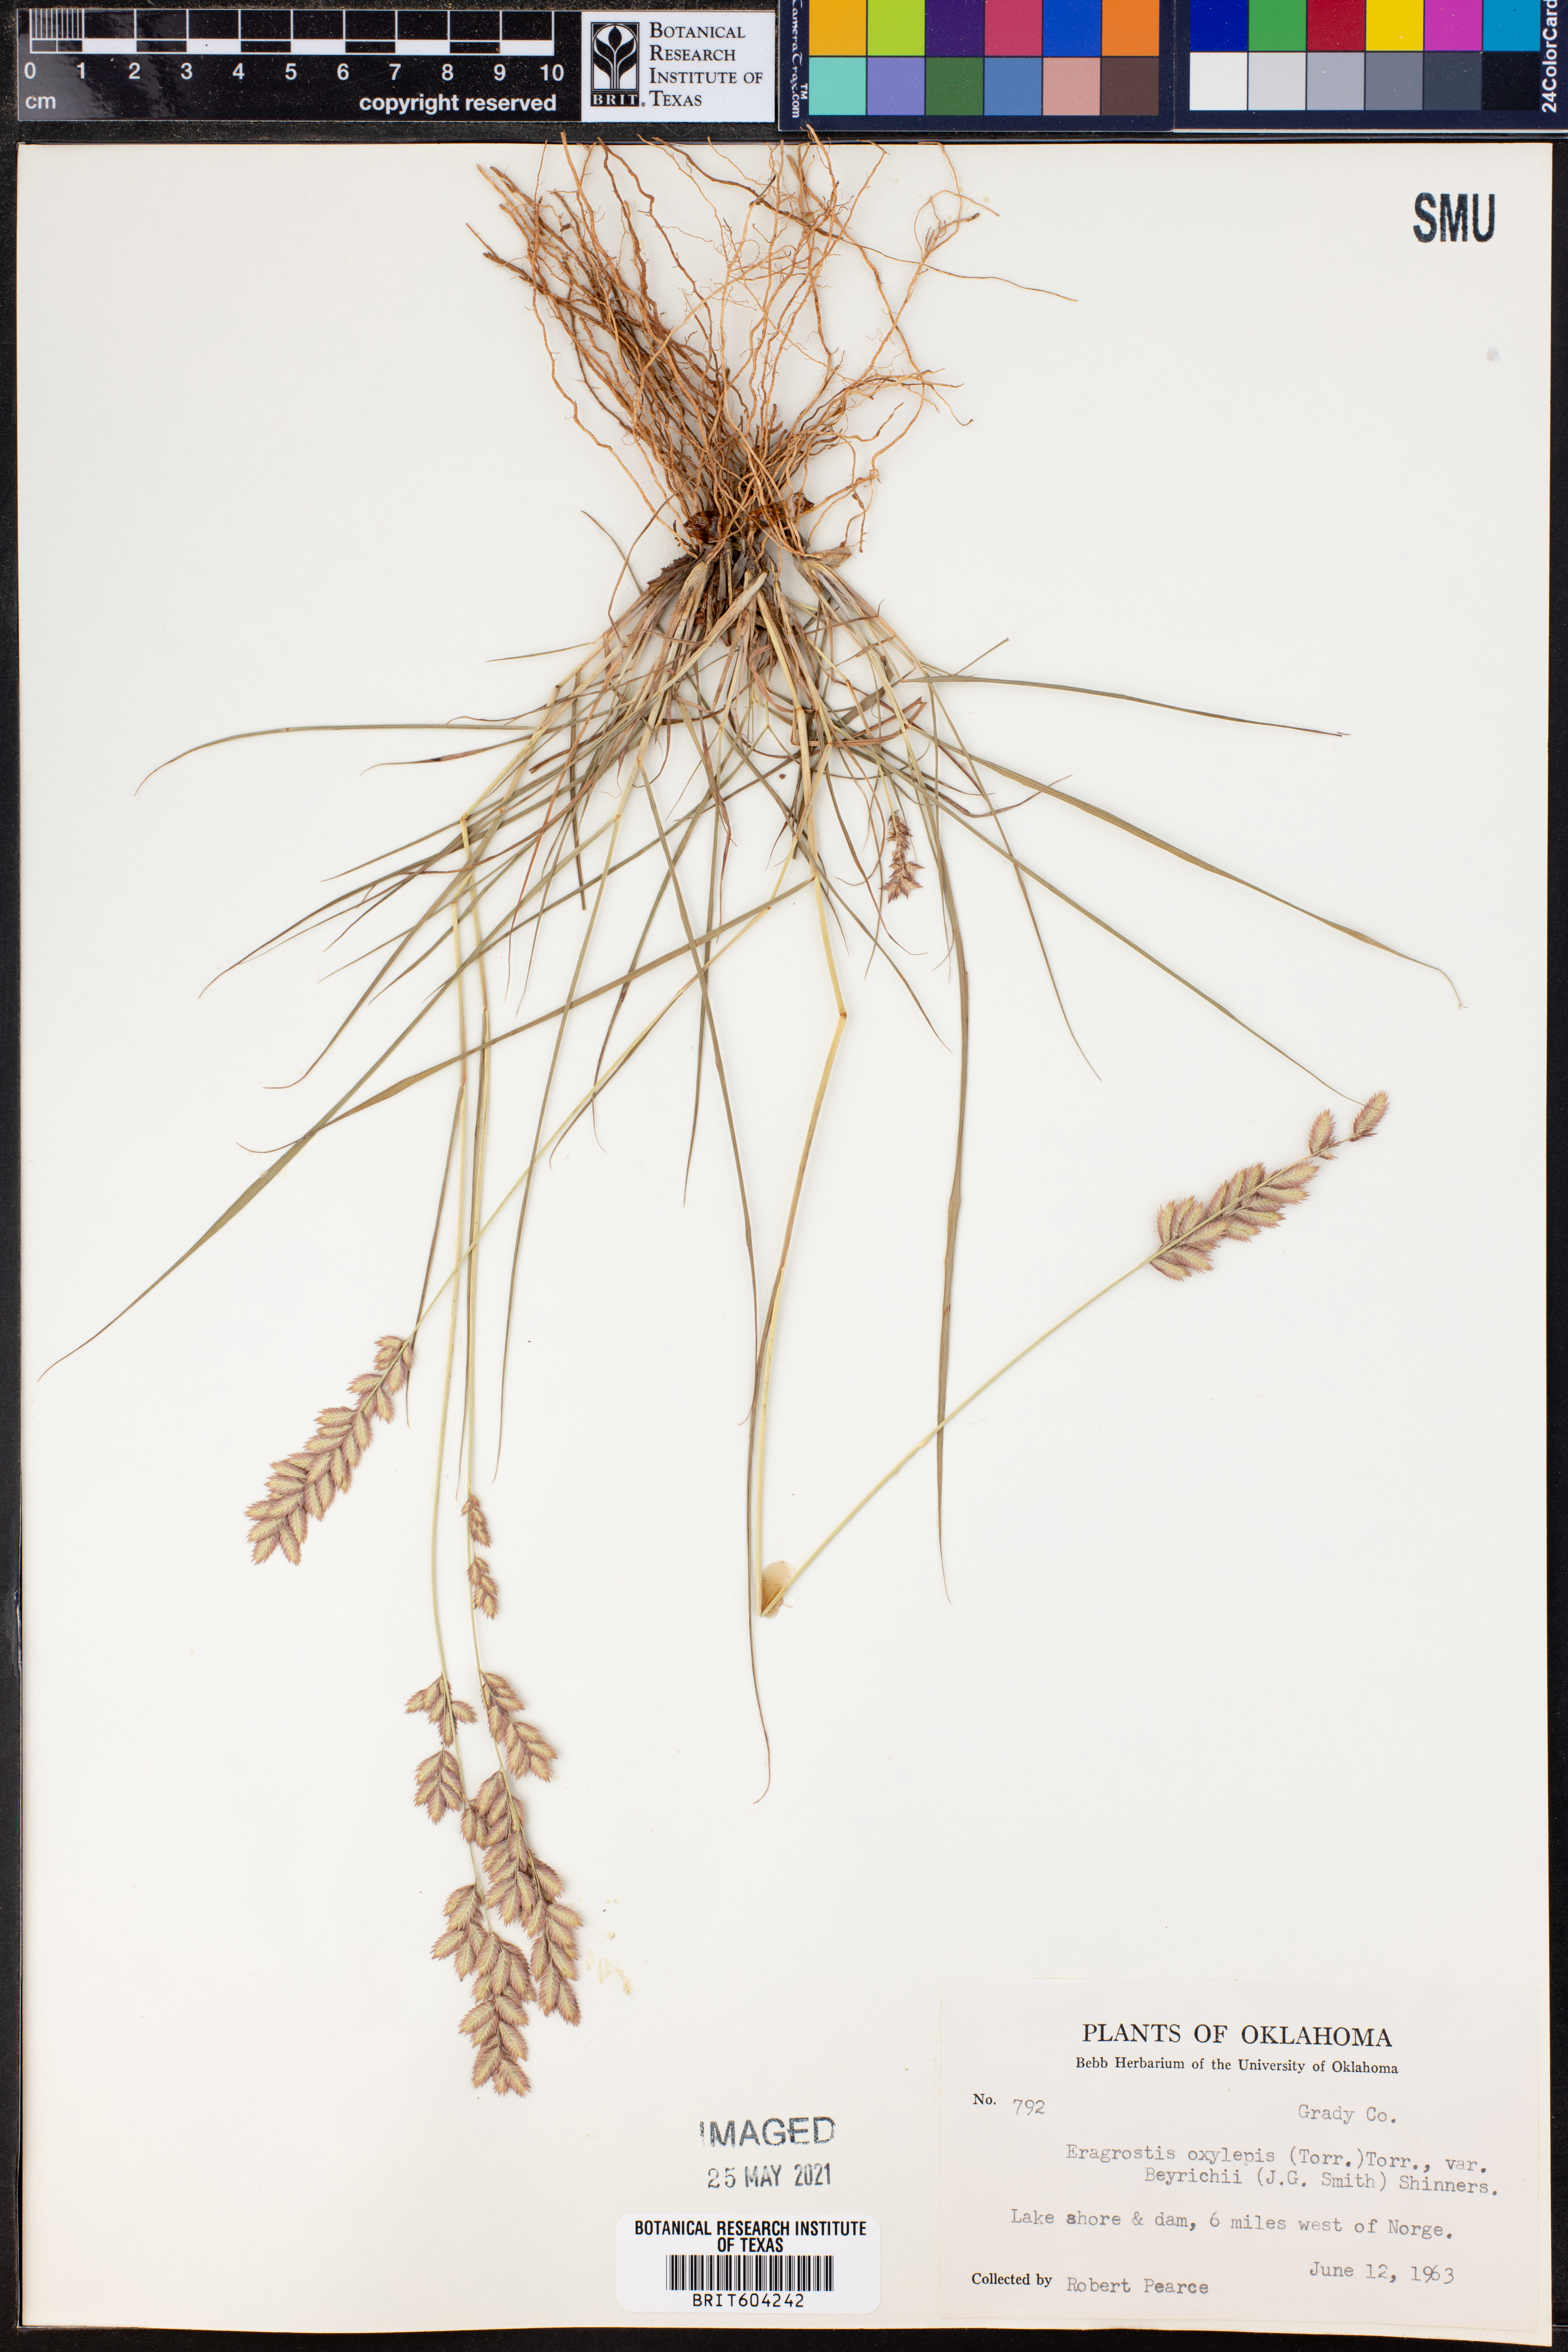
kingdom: Plantae
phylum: Tracheophyta
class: Liliopsida
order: Poales
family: Poaceae
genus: Eragrostis
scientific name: Eragrostis secundiflora
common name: Red love grass
